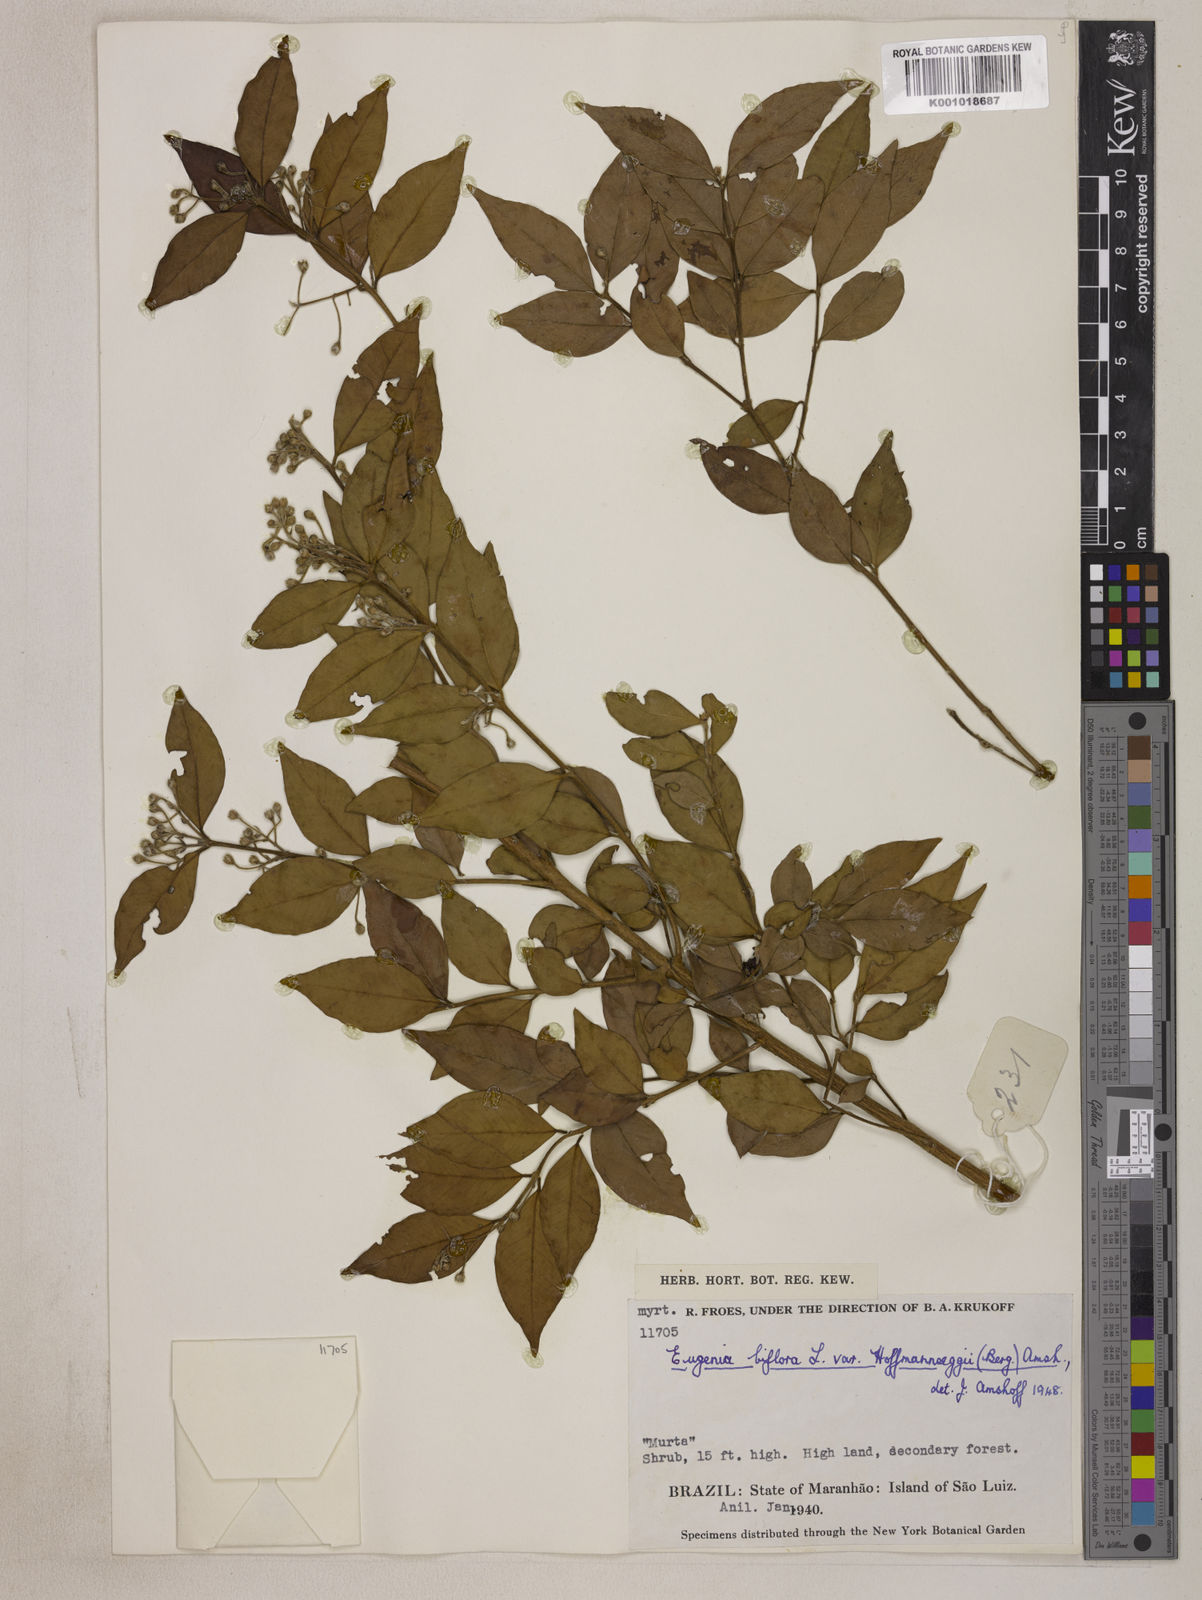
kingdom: Plantae
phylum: Tracheophyta
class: Magnoliopsida
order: Myrtales
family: Myrtaceae
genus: Eugenia
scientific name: Eugenia biflora
